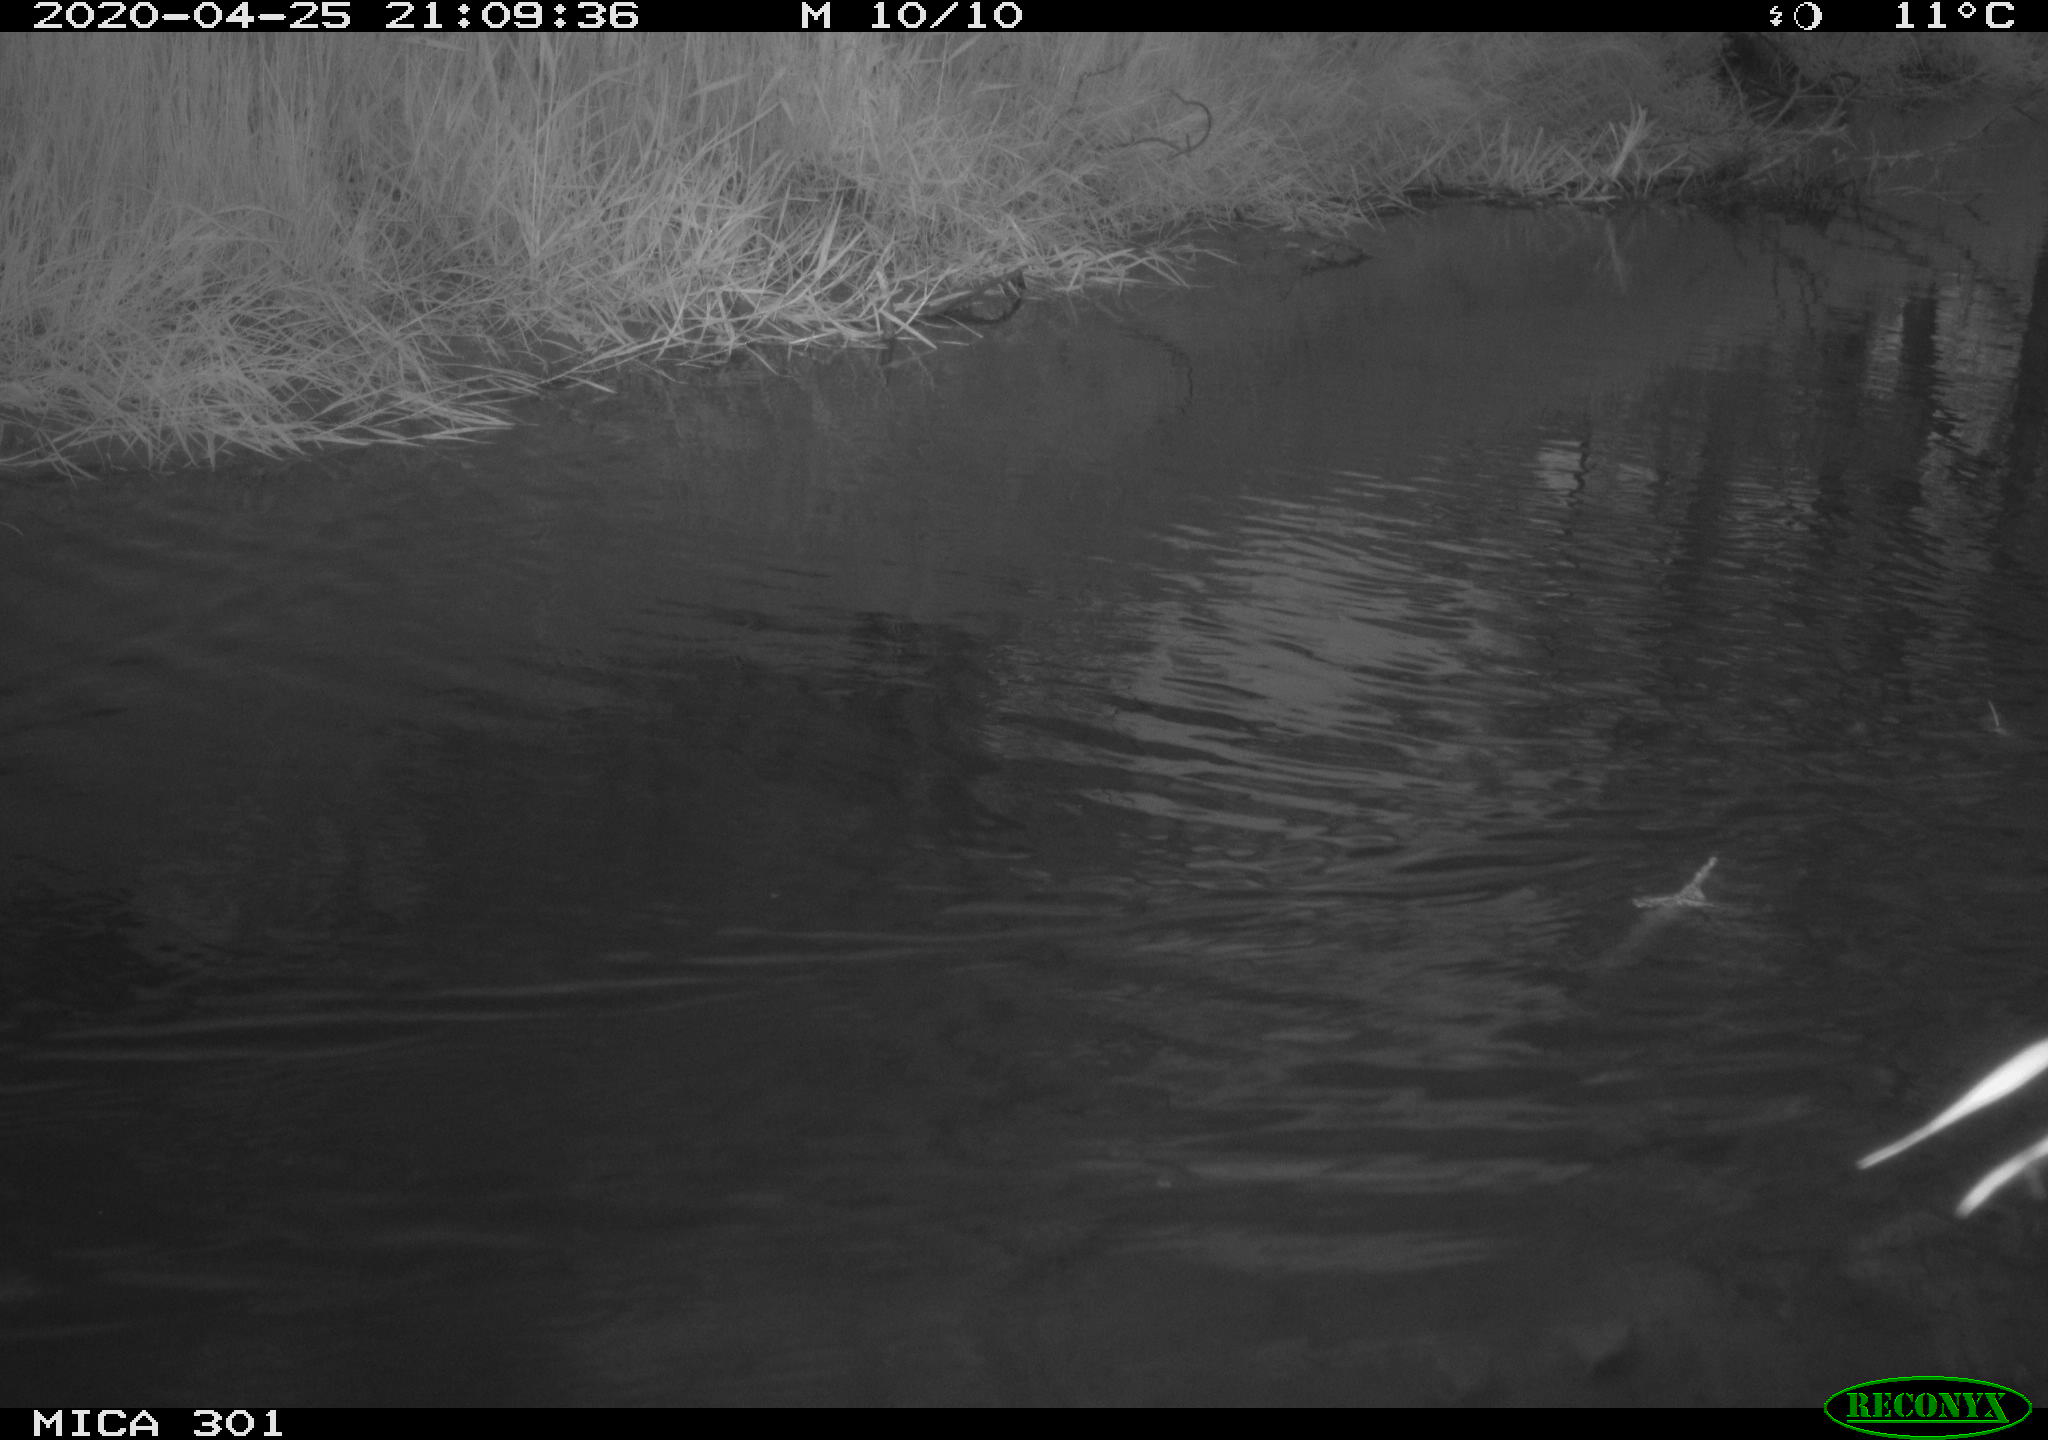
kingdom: Animalia
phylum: Chordata
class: Aves
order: Anseriformes
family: Anatidae
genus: Mareca
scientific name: Mareca strepera
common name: Gadwall
